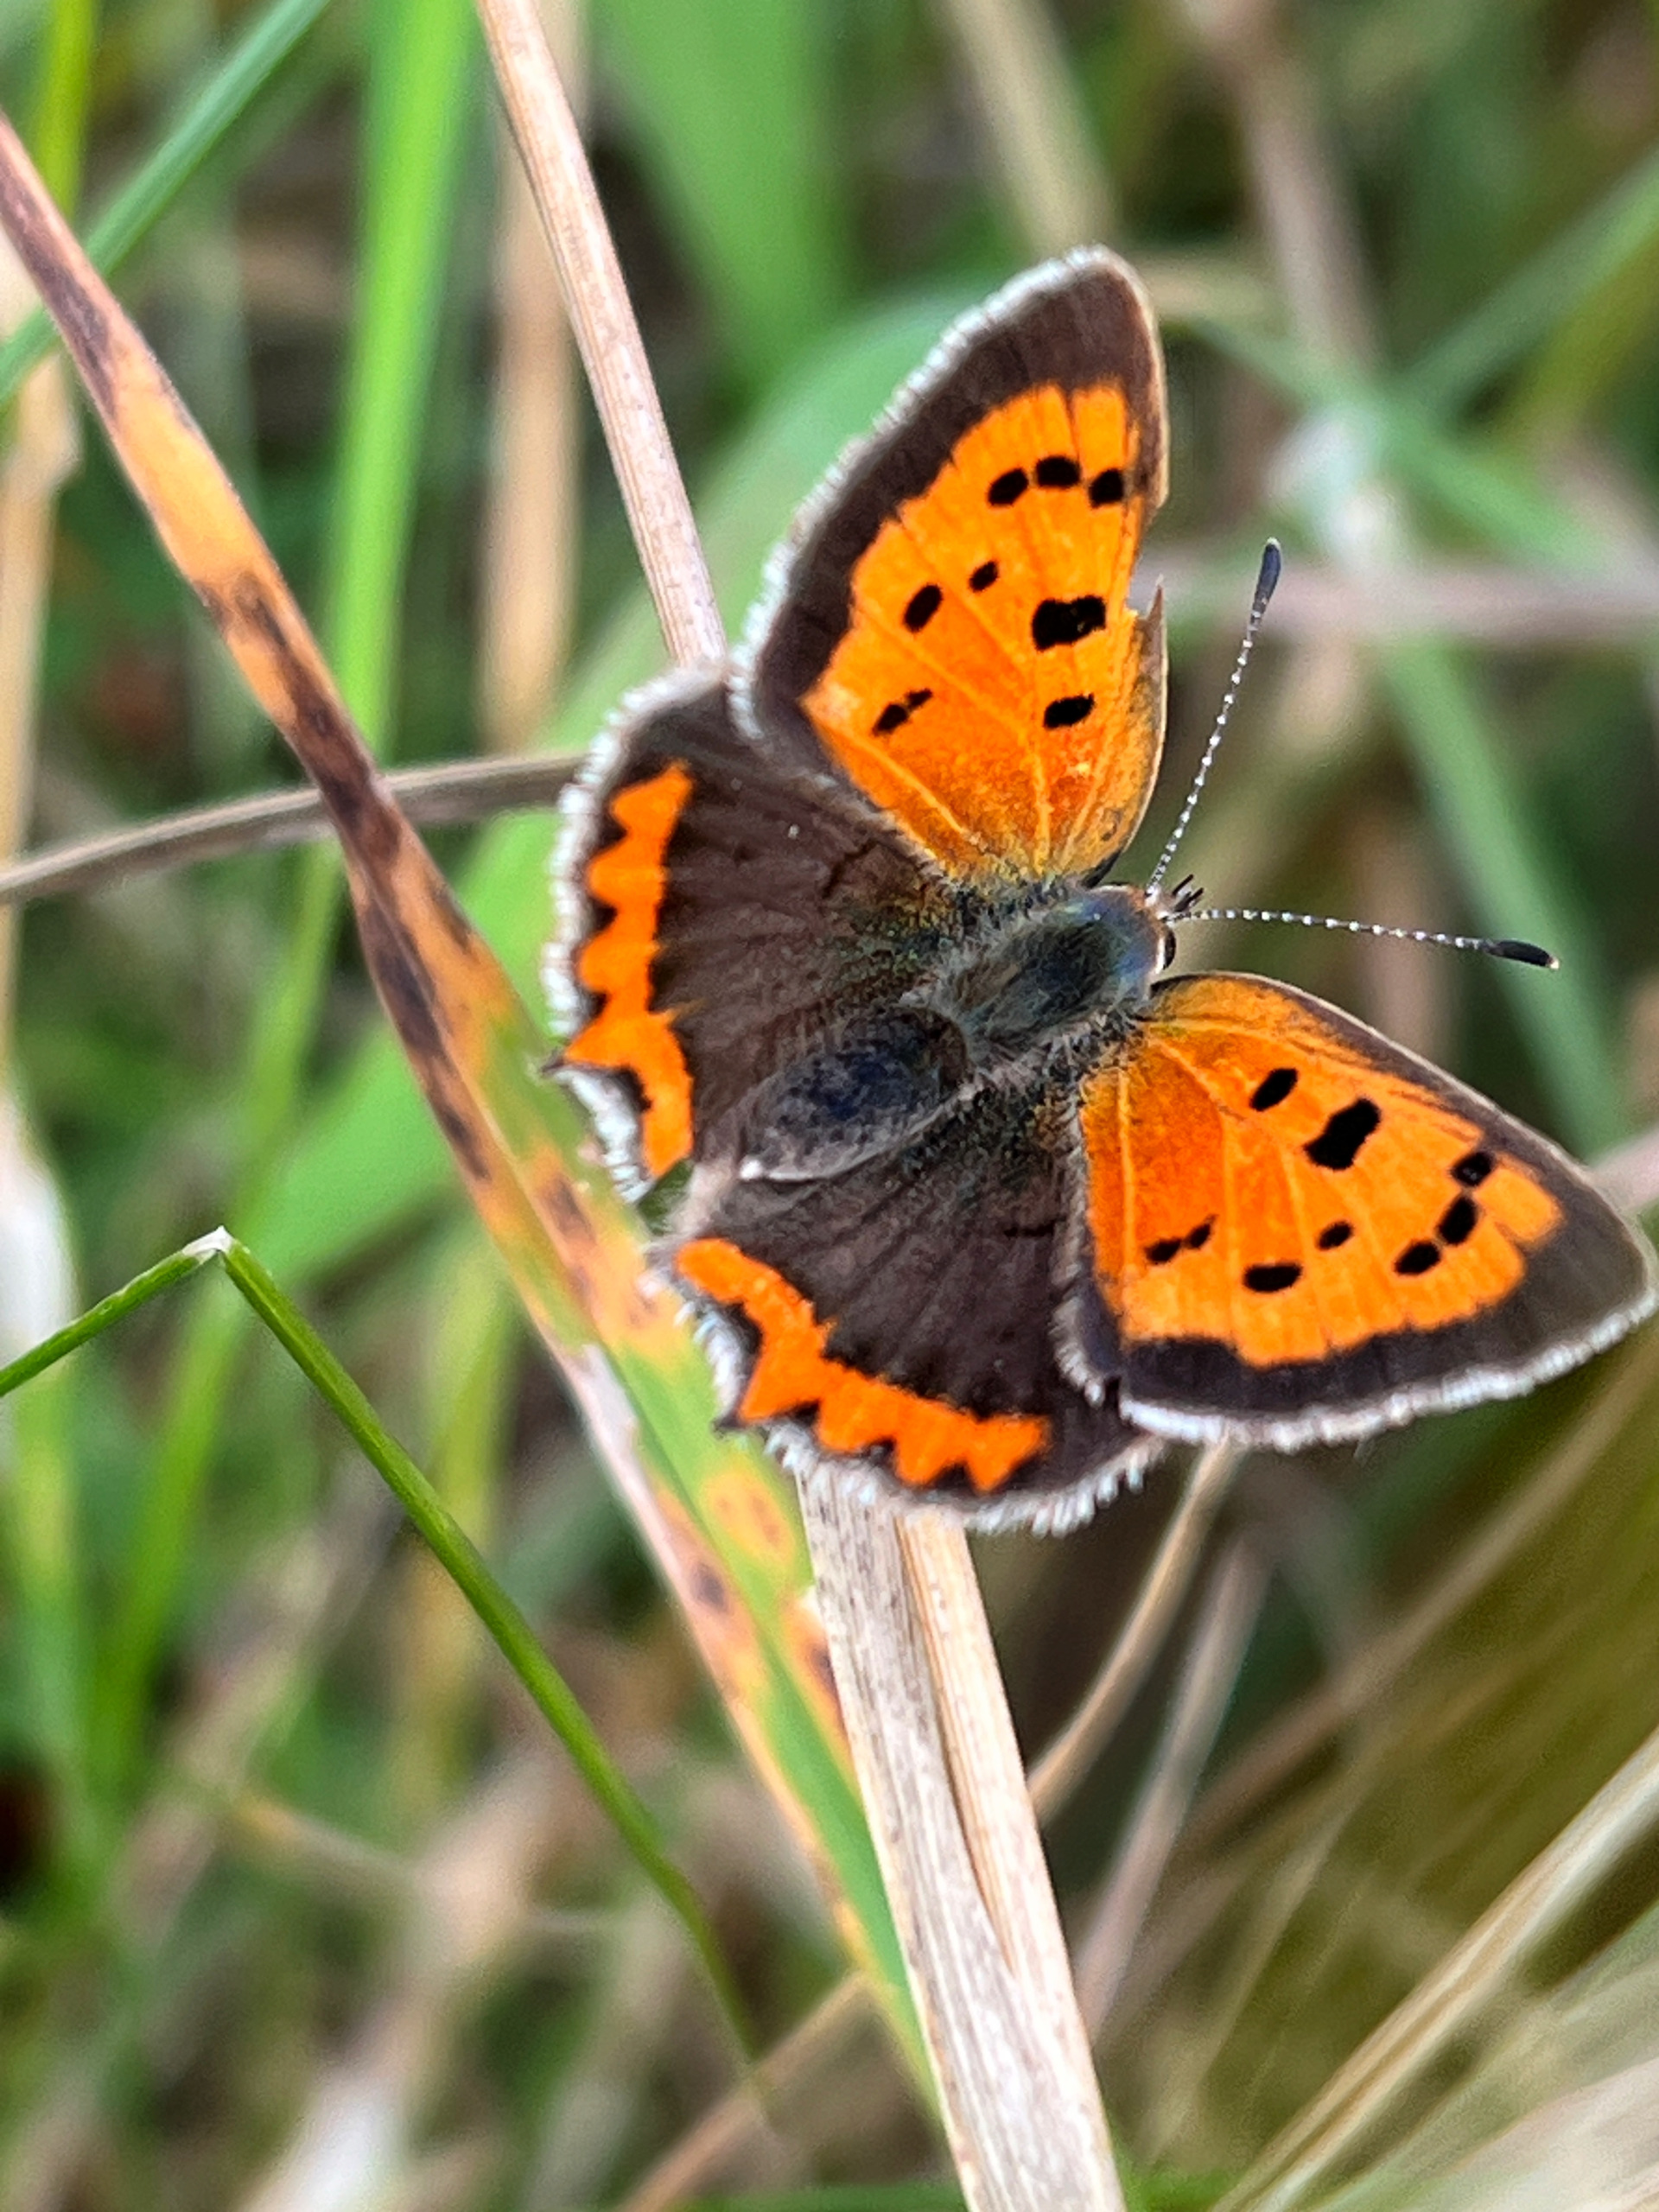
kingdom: Animalia
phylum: Arthropoda
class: Insecta
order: Lepidoptera
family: Lycaenidae
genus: Lycaena
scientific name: Lycaena phlaeas
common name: Lille ildfugl
